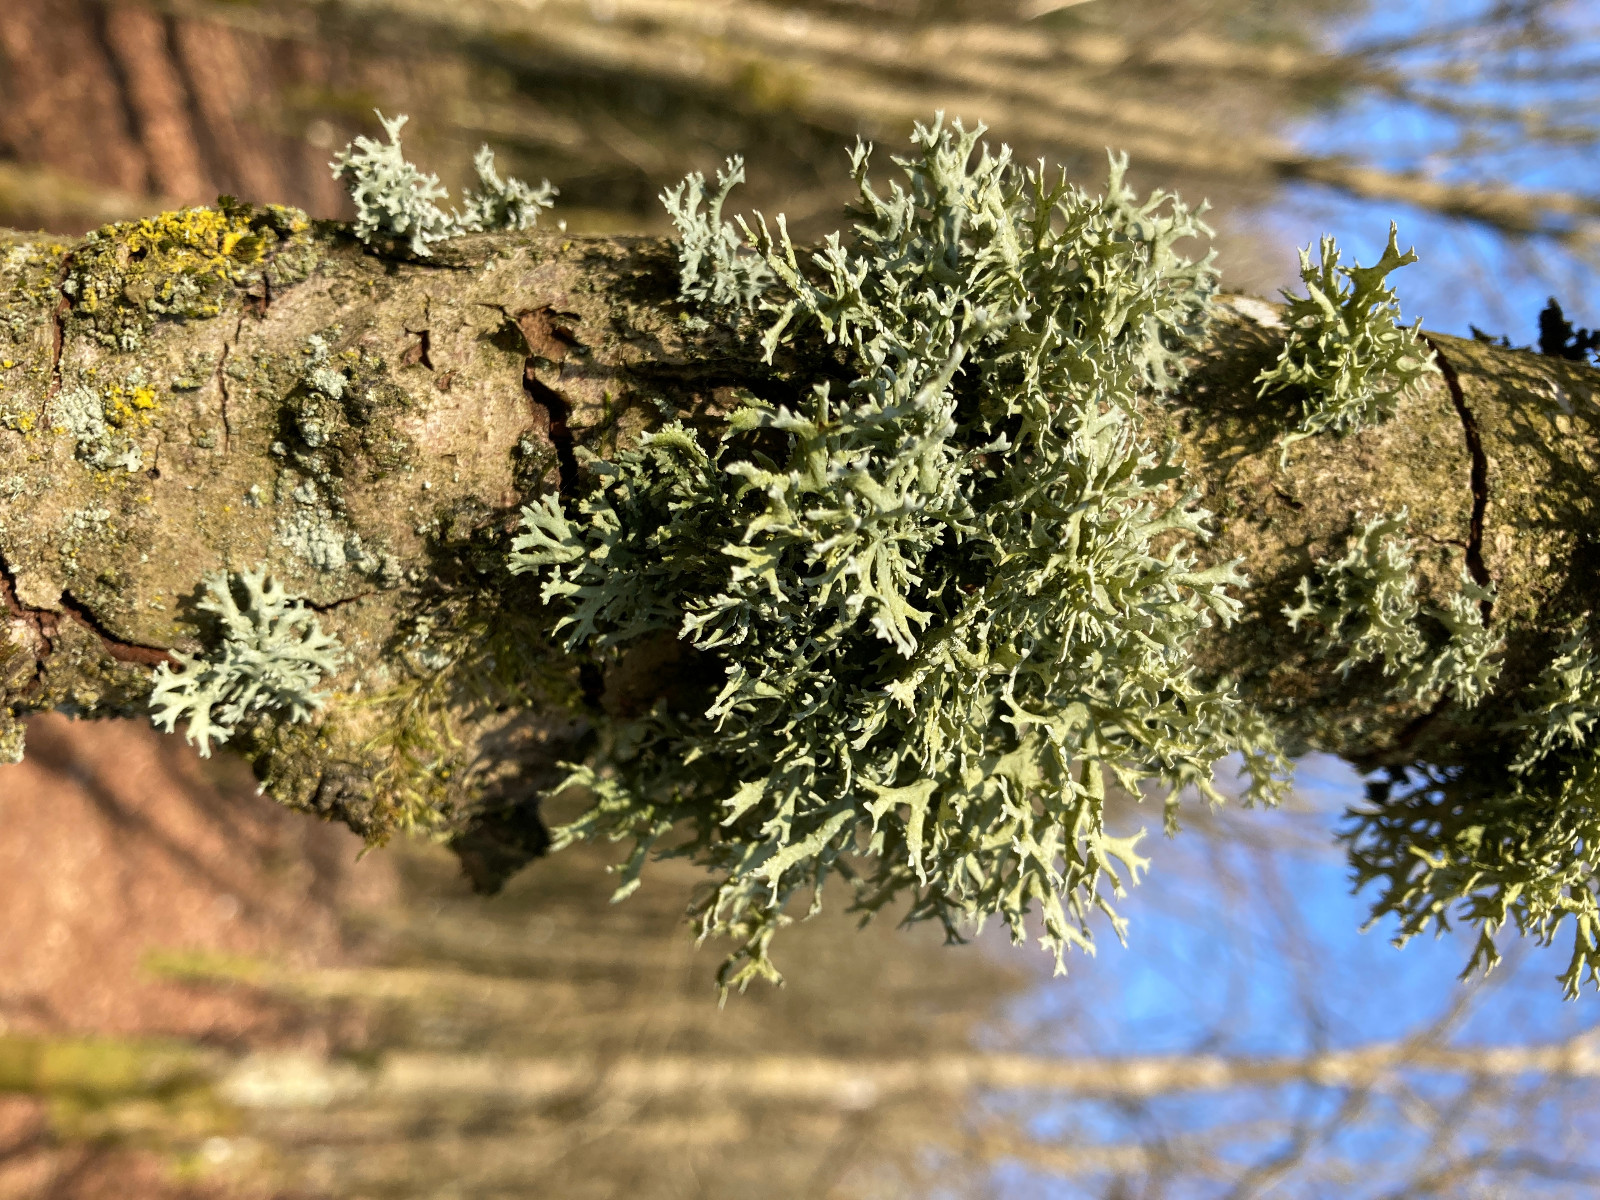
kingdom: Fungi
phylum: Ascomycota
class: Lecanoromycetes
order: Lecanorales
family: Parmeliaceae
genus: Evernia
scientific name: Evernia prunastri
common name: almindelig slåenlav
